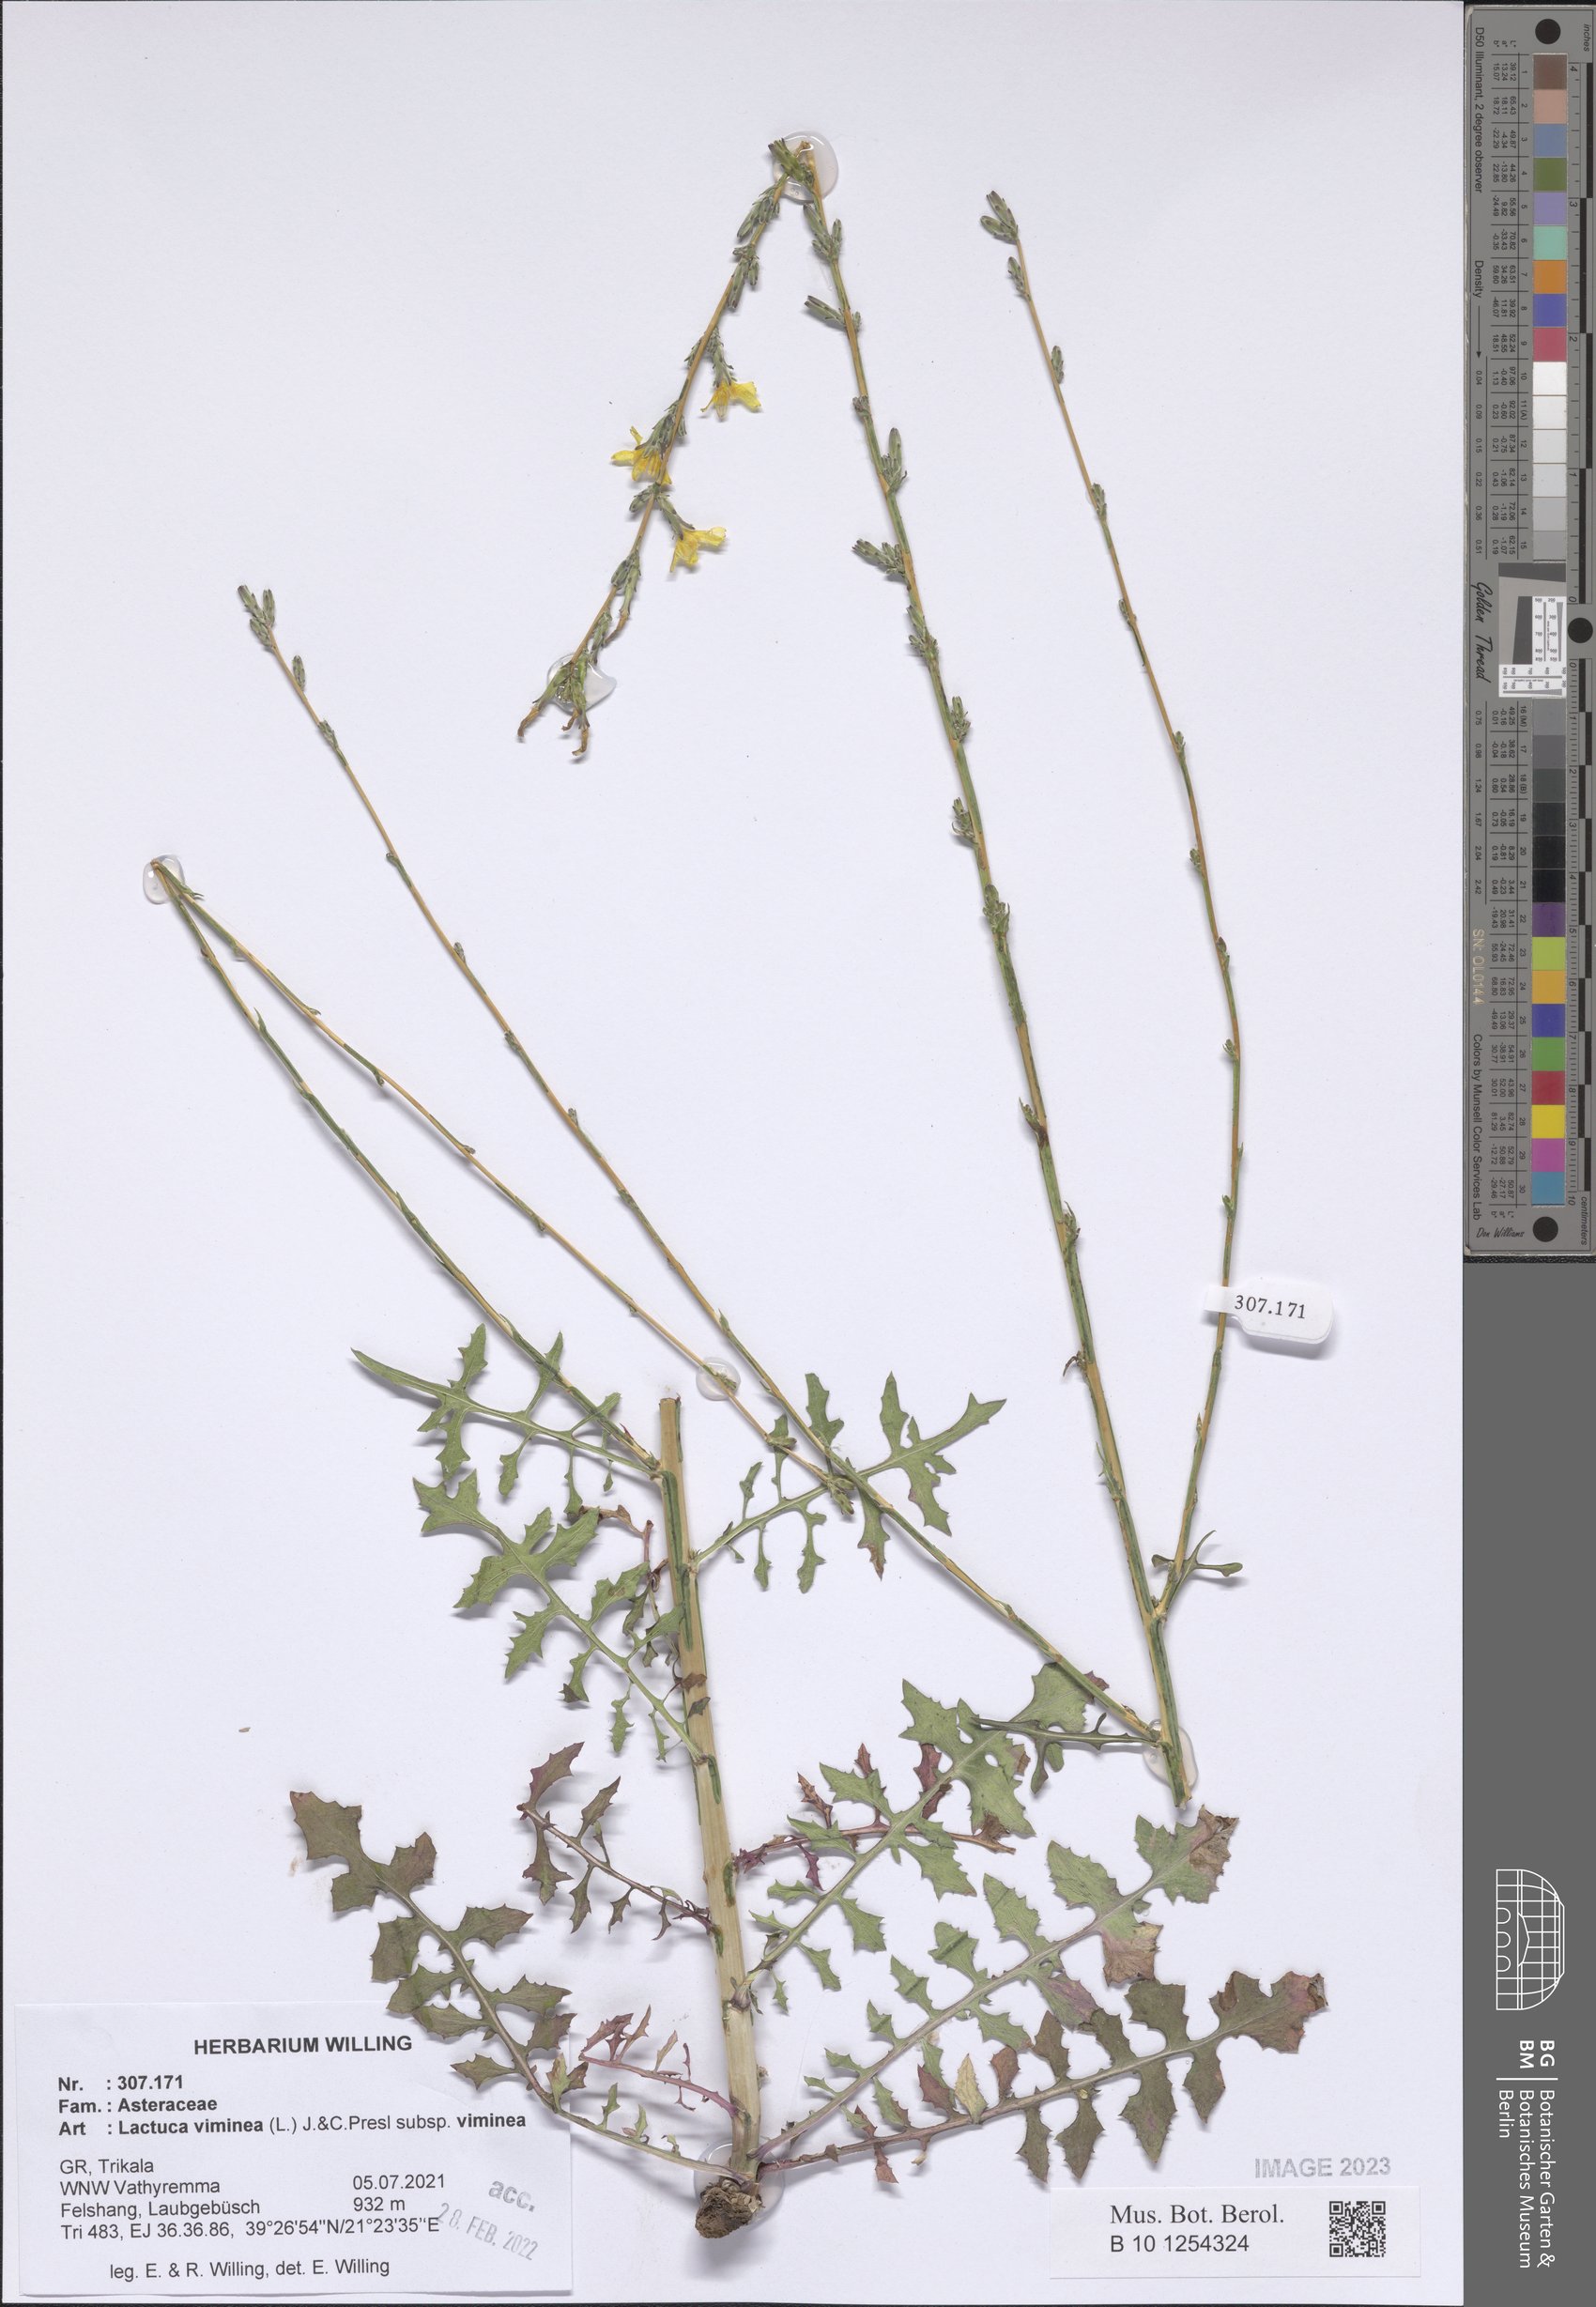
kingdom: Plantae
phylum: Tracheophyta
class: Magnoliopsida
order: Asterales
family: Asteraceae
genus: Lactuca
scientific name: Lactuca viminea
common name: Pliant lettuce
